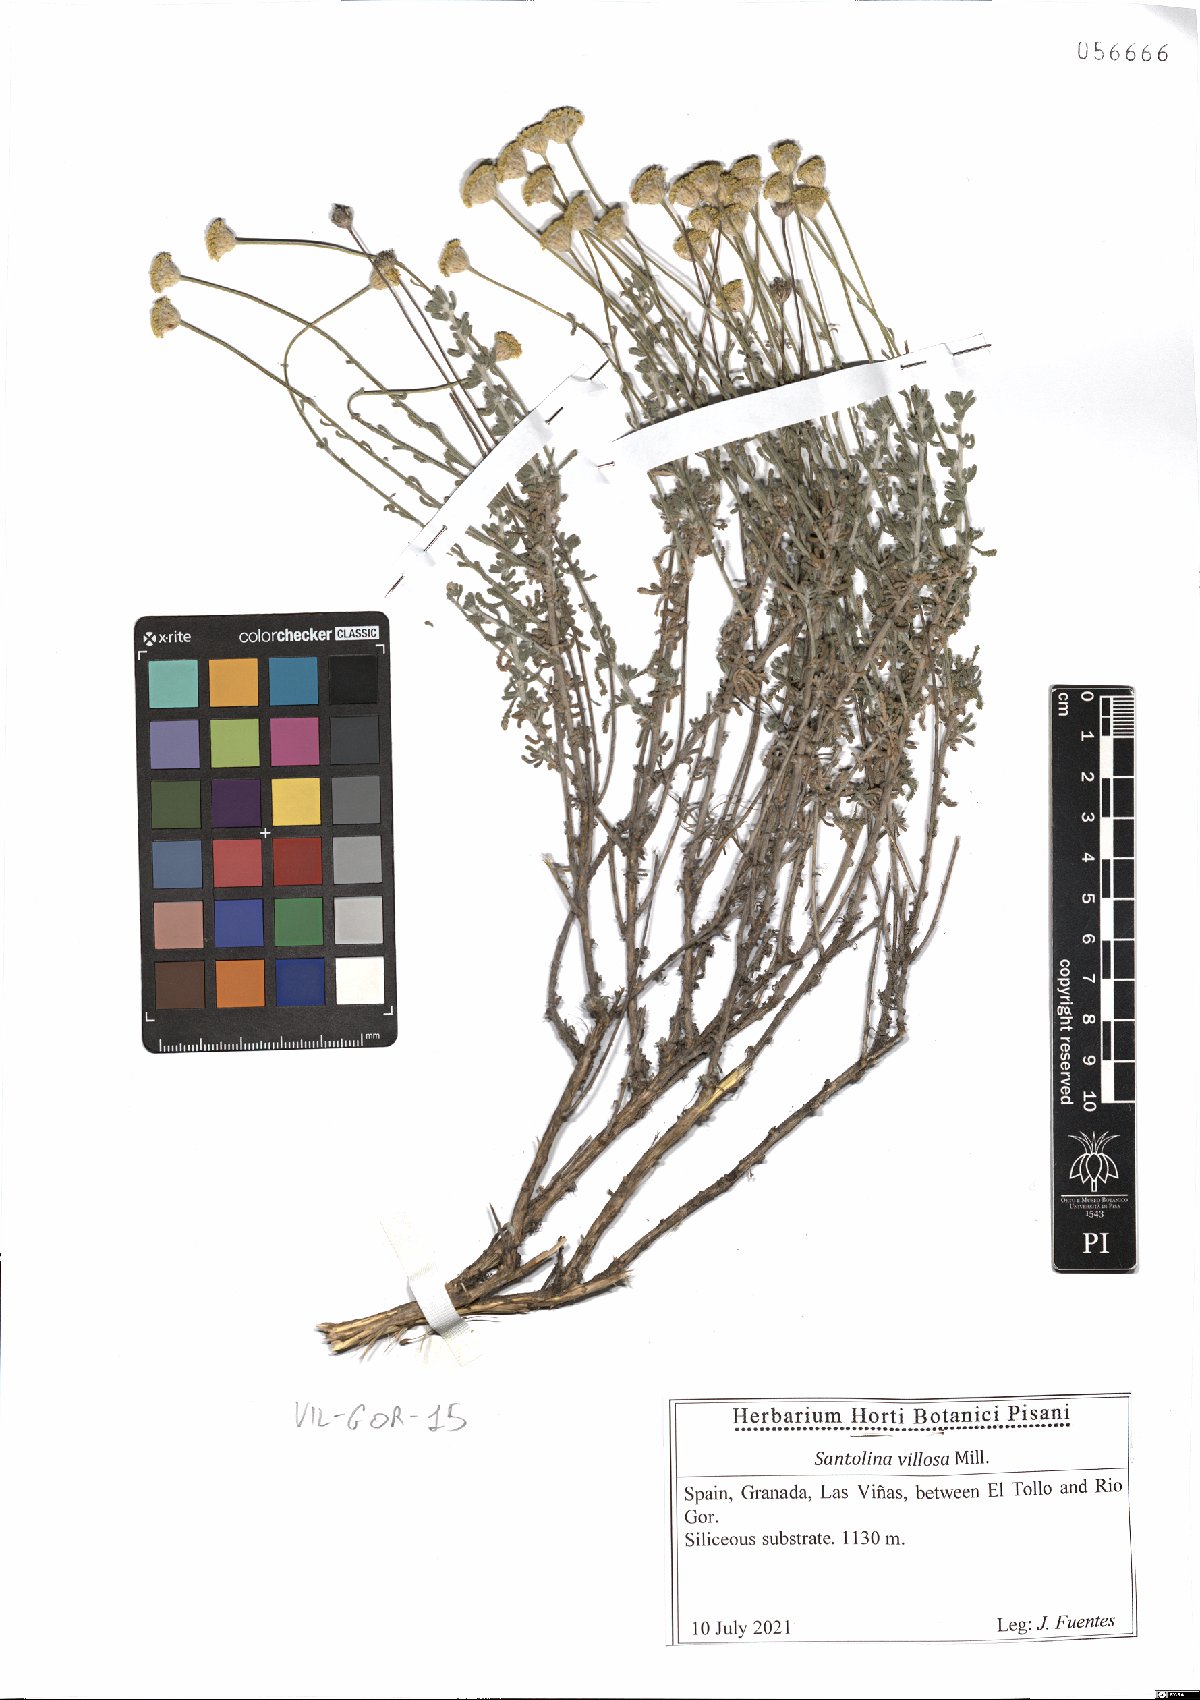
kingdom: Plantae
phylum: Tracheophyta
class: Magnoliopsida
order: Asterales
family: Asteraceae
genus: Santolina
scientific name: Santolina chamaecyparissus
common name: Lavender-cotton
